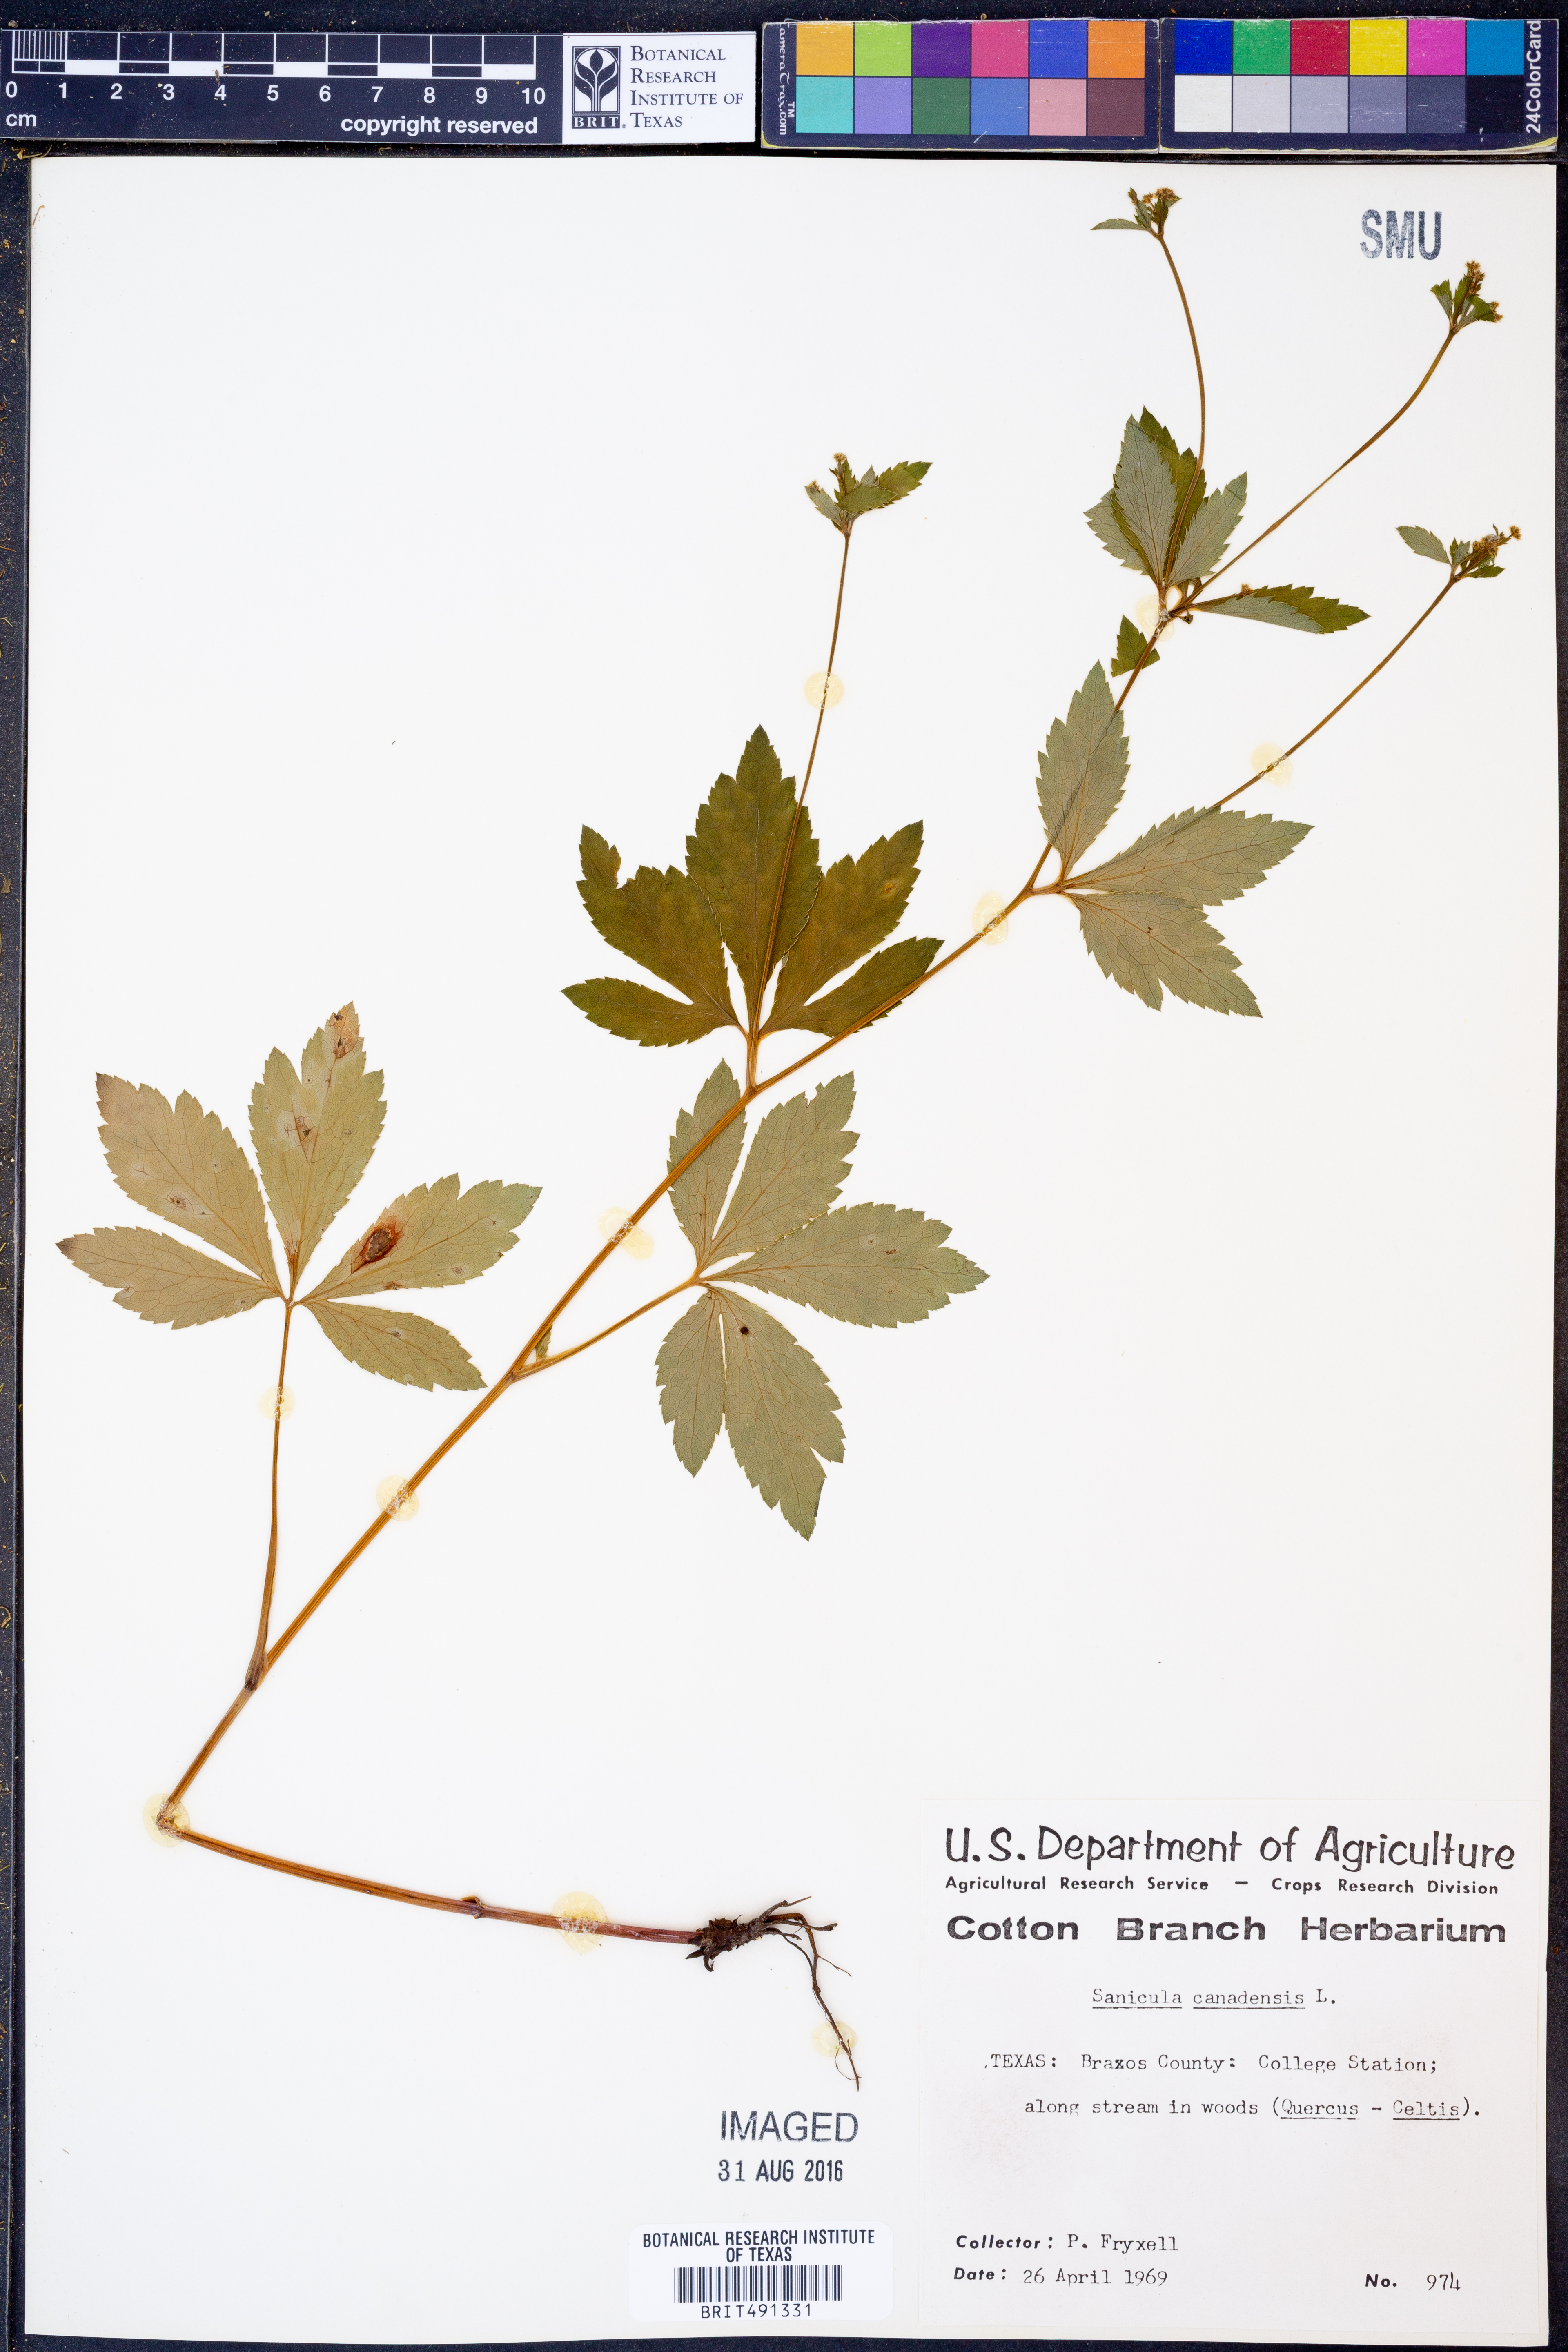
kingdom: Plantae
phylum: Tracheophyta
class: Magnoliopsida
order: Apiales
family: Apiaceae
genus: Sanicula
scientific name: Sanicula canadensis
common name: Canada sanicle
